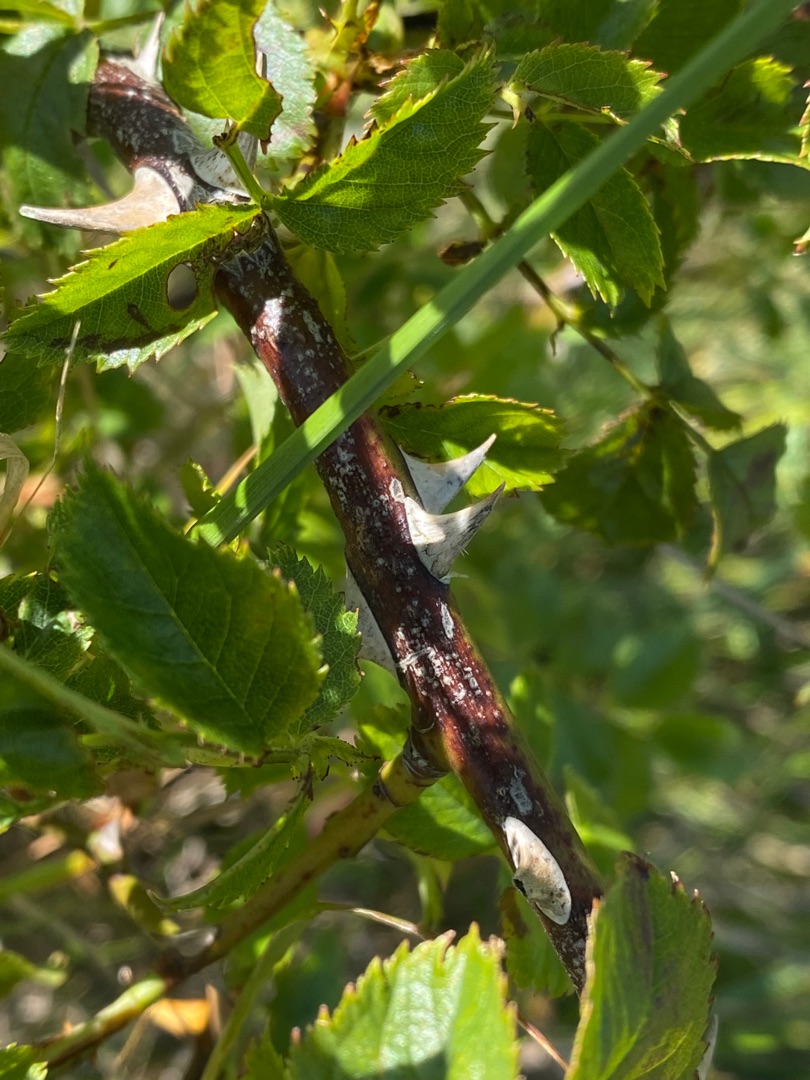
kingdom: Plantae
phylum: Tracheophyta
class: Magnoliopsida
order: Rosales
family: Rosaceae
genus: Rosa
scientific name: Rosa canina
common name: Glat hunde-rose
